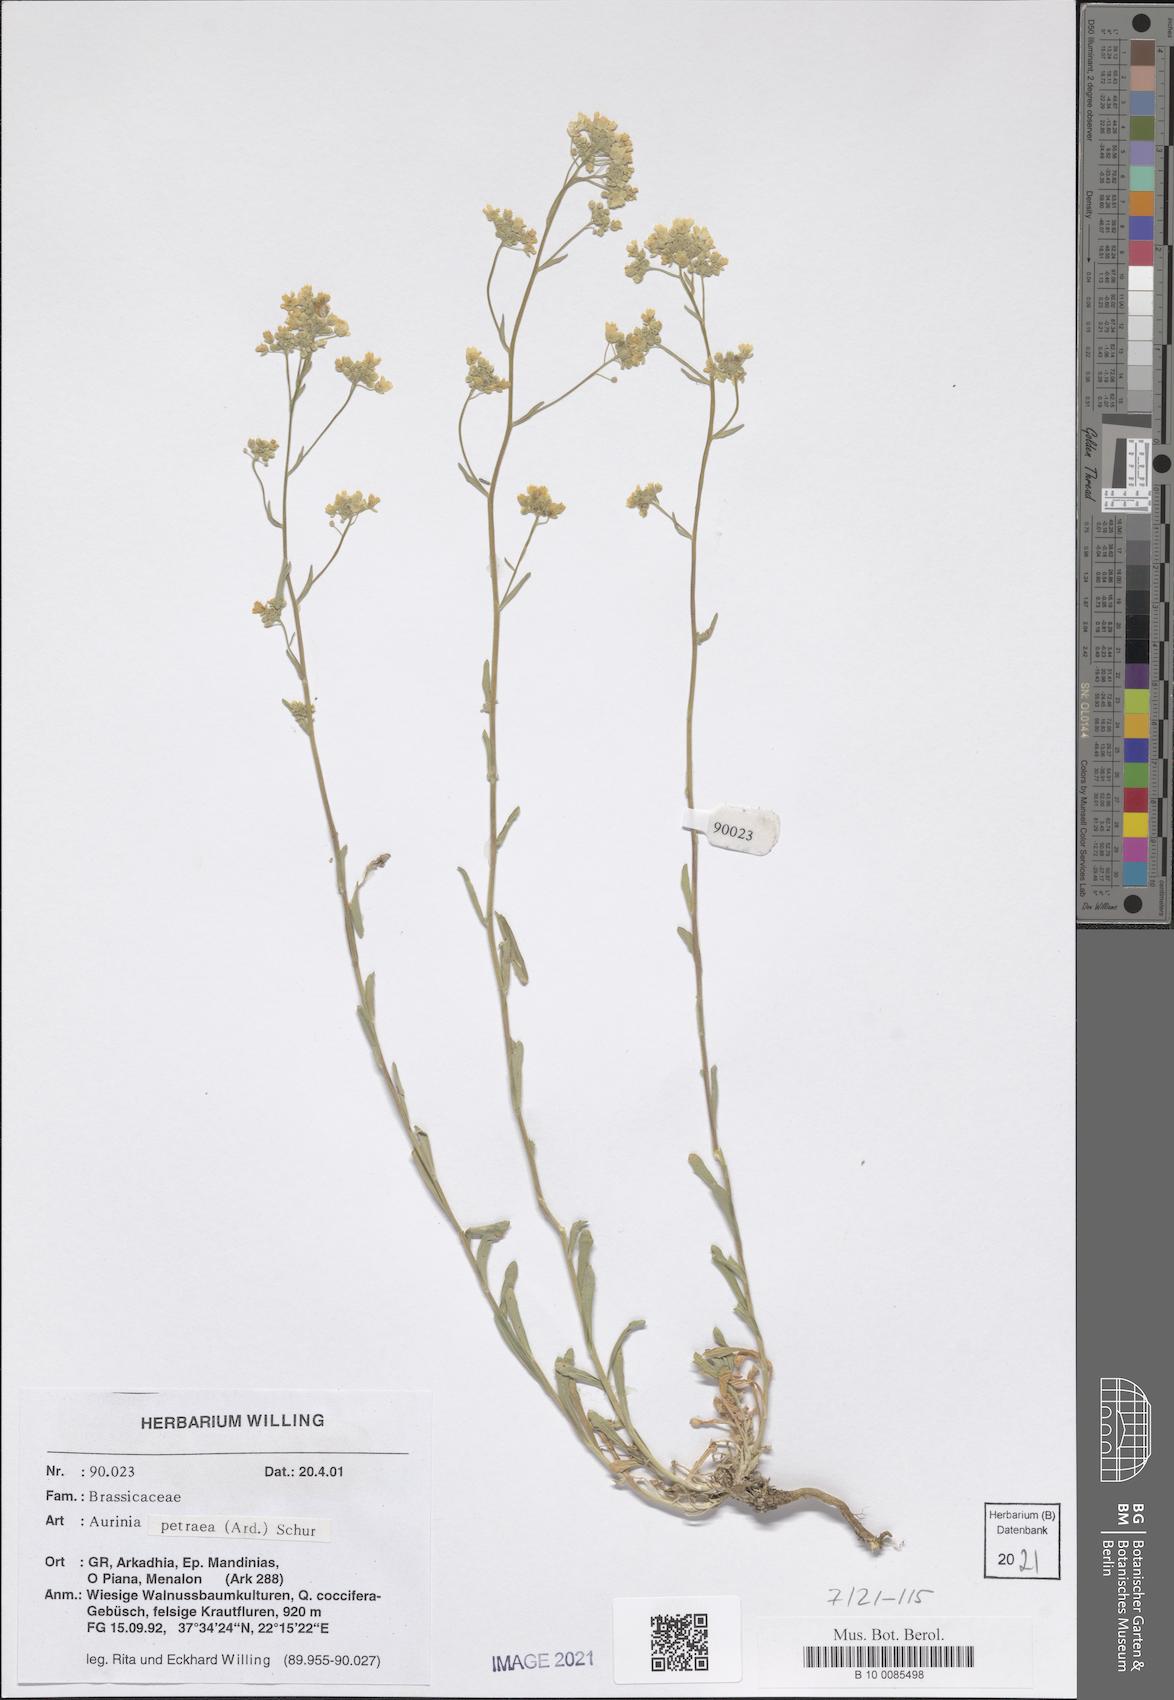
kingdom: Plantae
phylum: Tracheophyta
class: Magnoliopsida
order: Brassicales
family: Brassicaceae
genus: Aurinia
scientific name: Aurinia petraea
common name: Goldentuft
